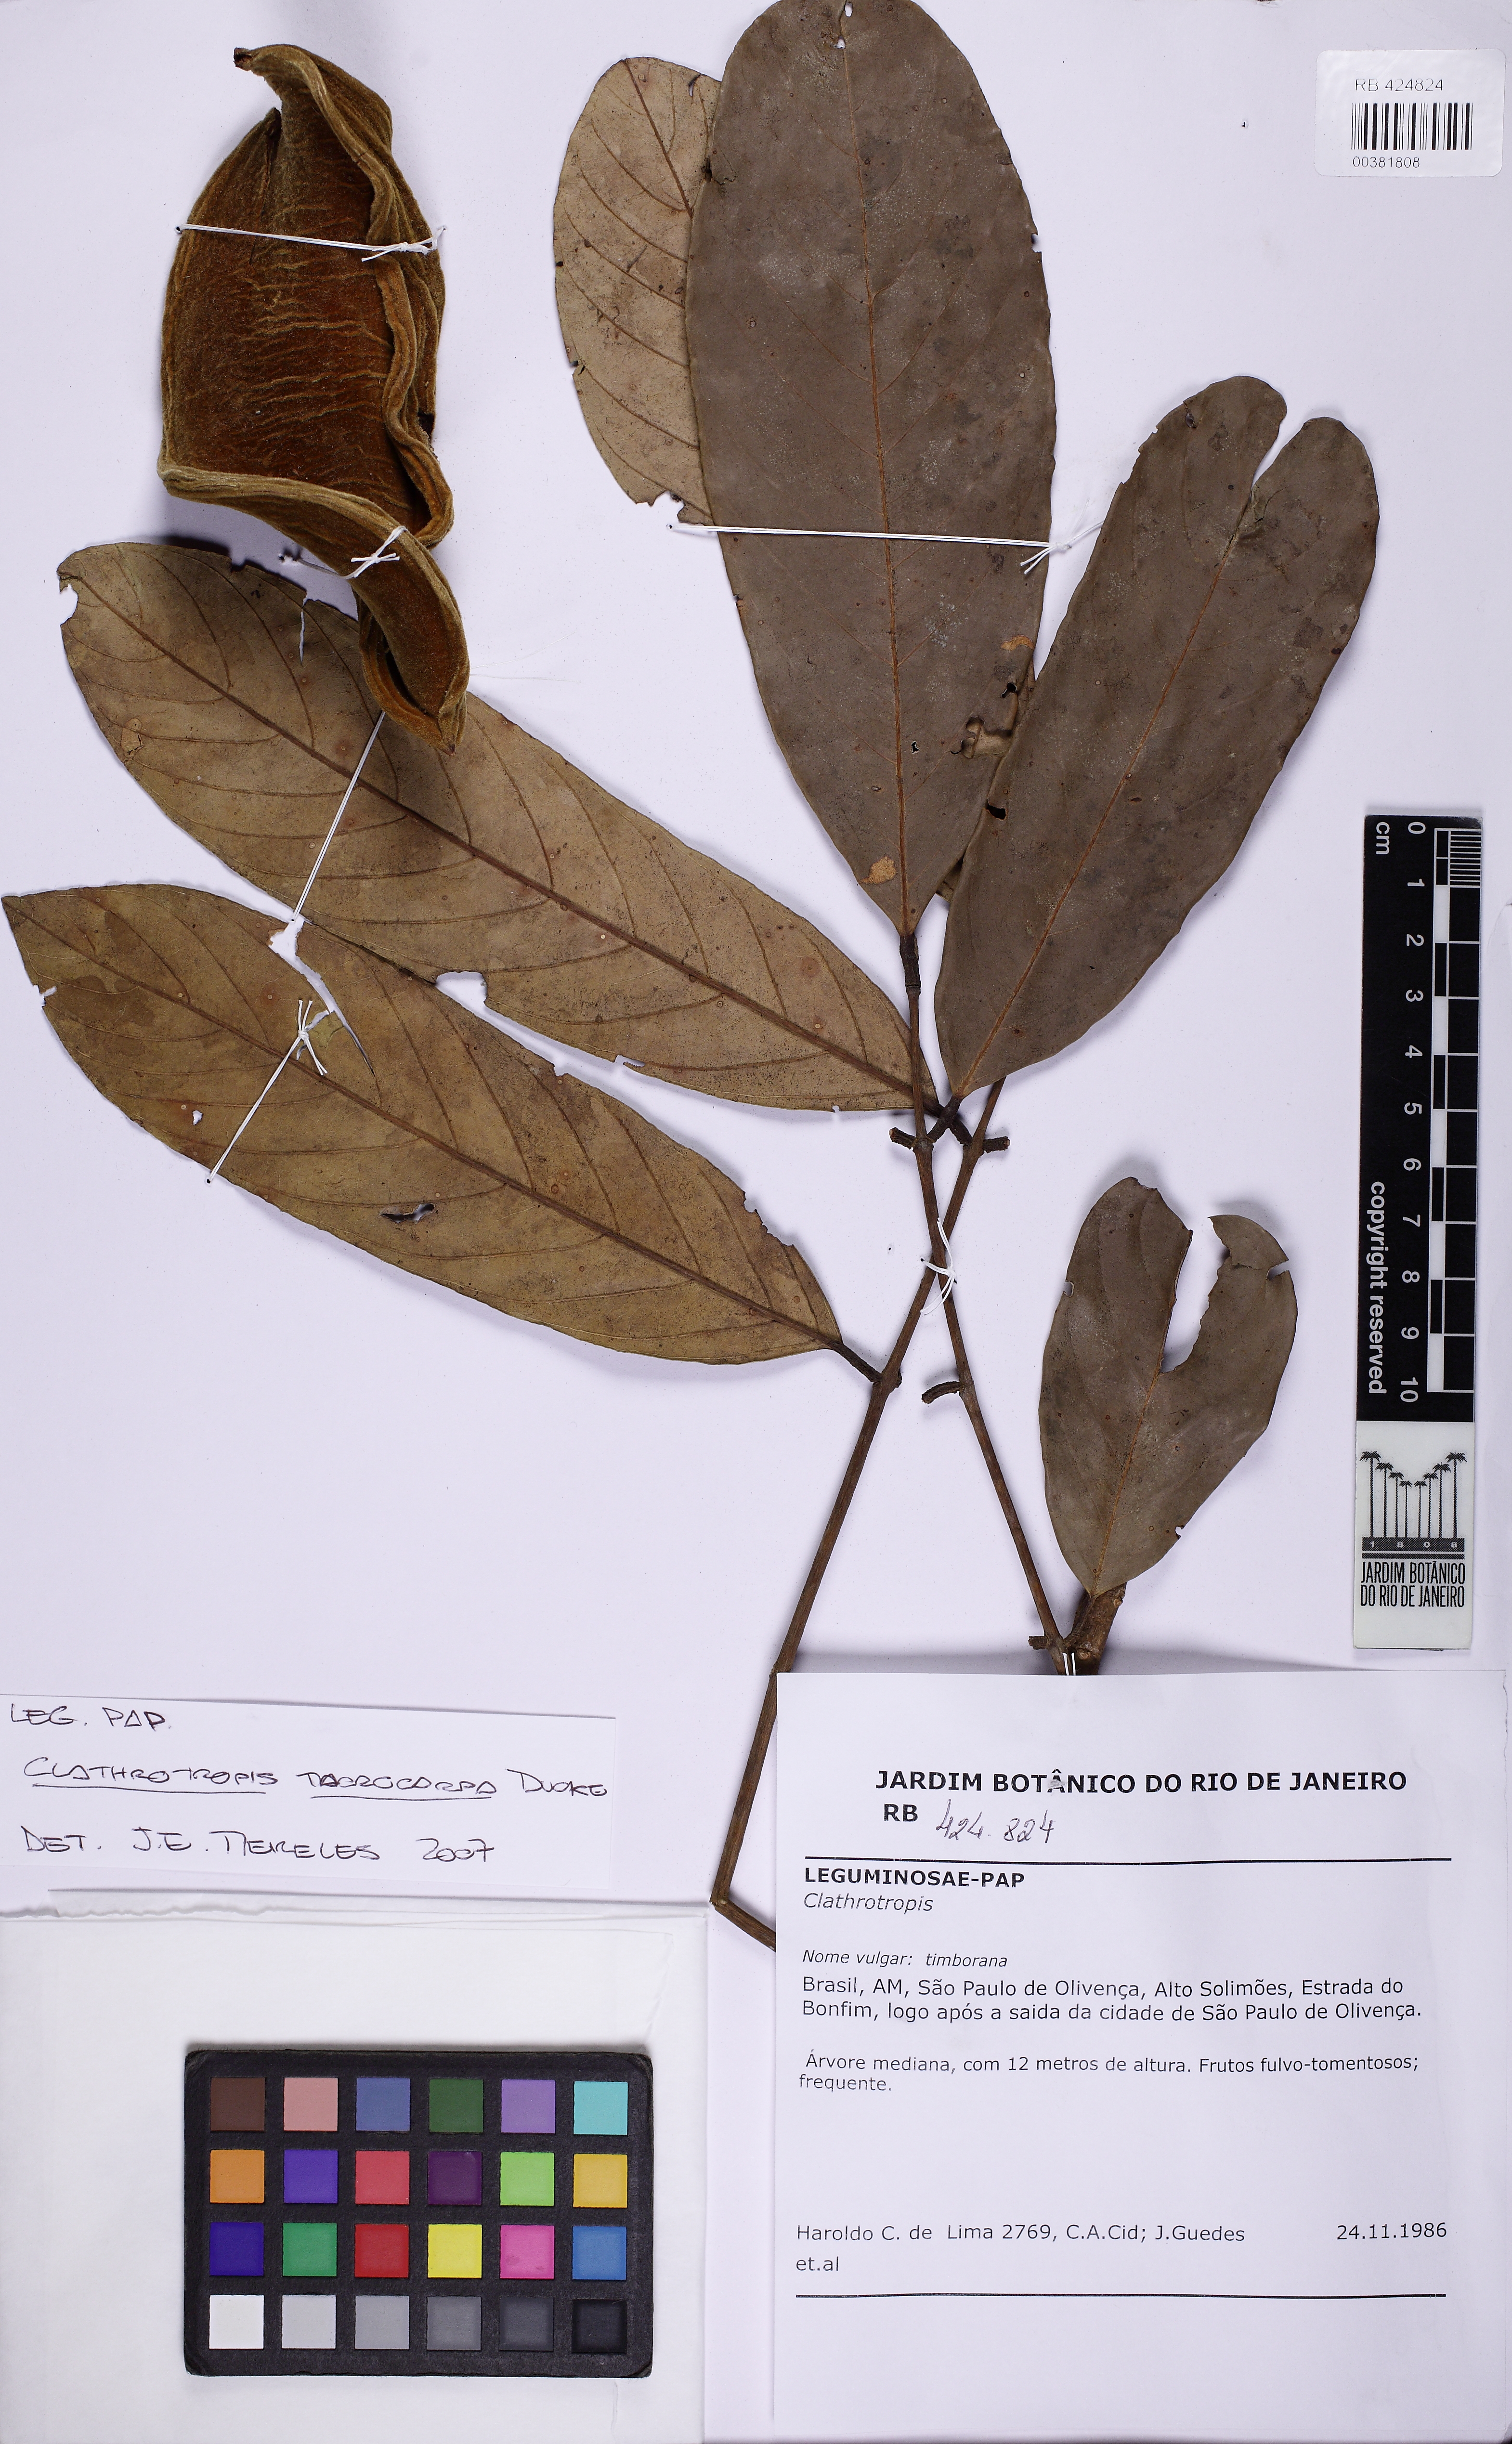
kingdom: Plantae
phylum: Tracheophyta
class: Magnoliopsida
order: Fabales
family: Fabaceae
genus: Clathrotropis
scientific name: Clathrotropis macrocarpa
